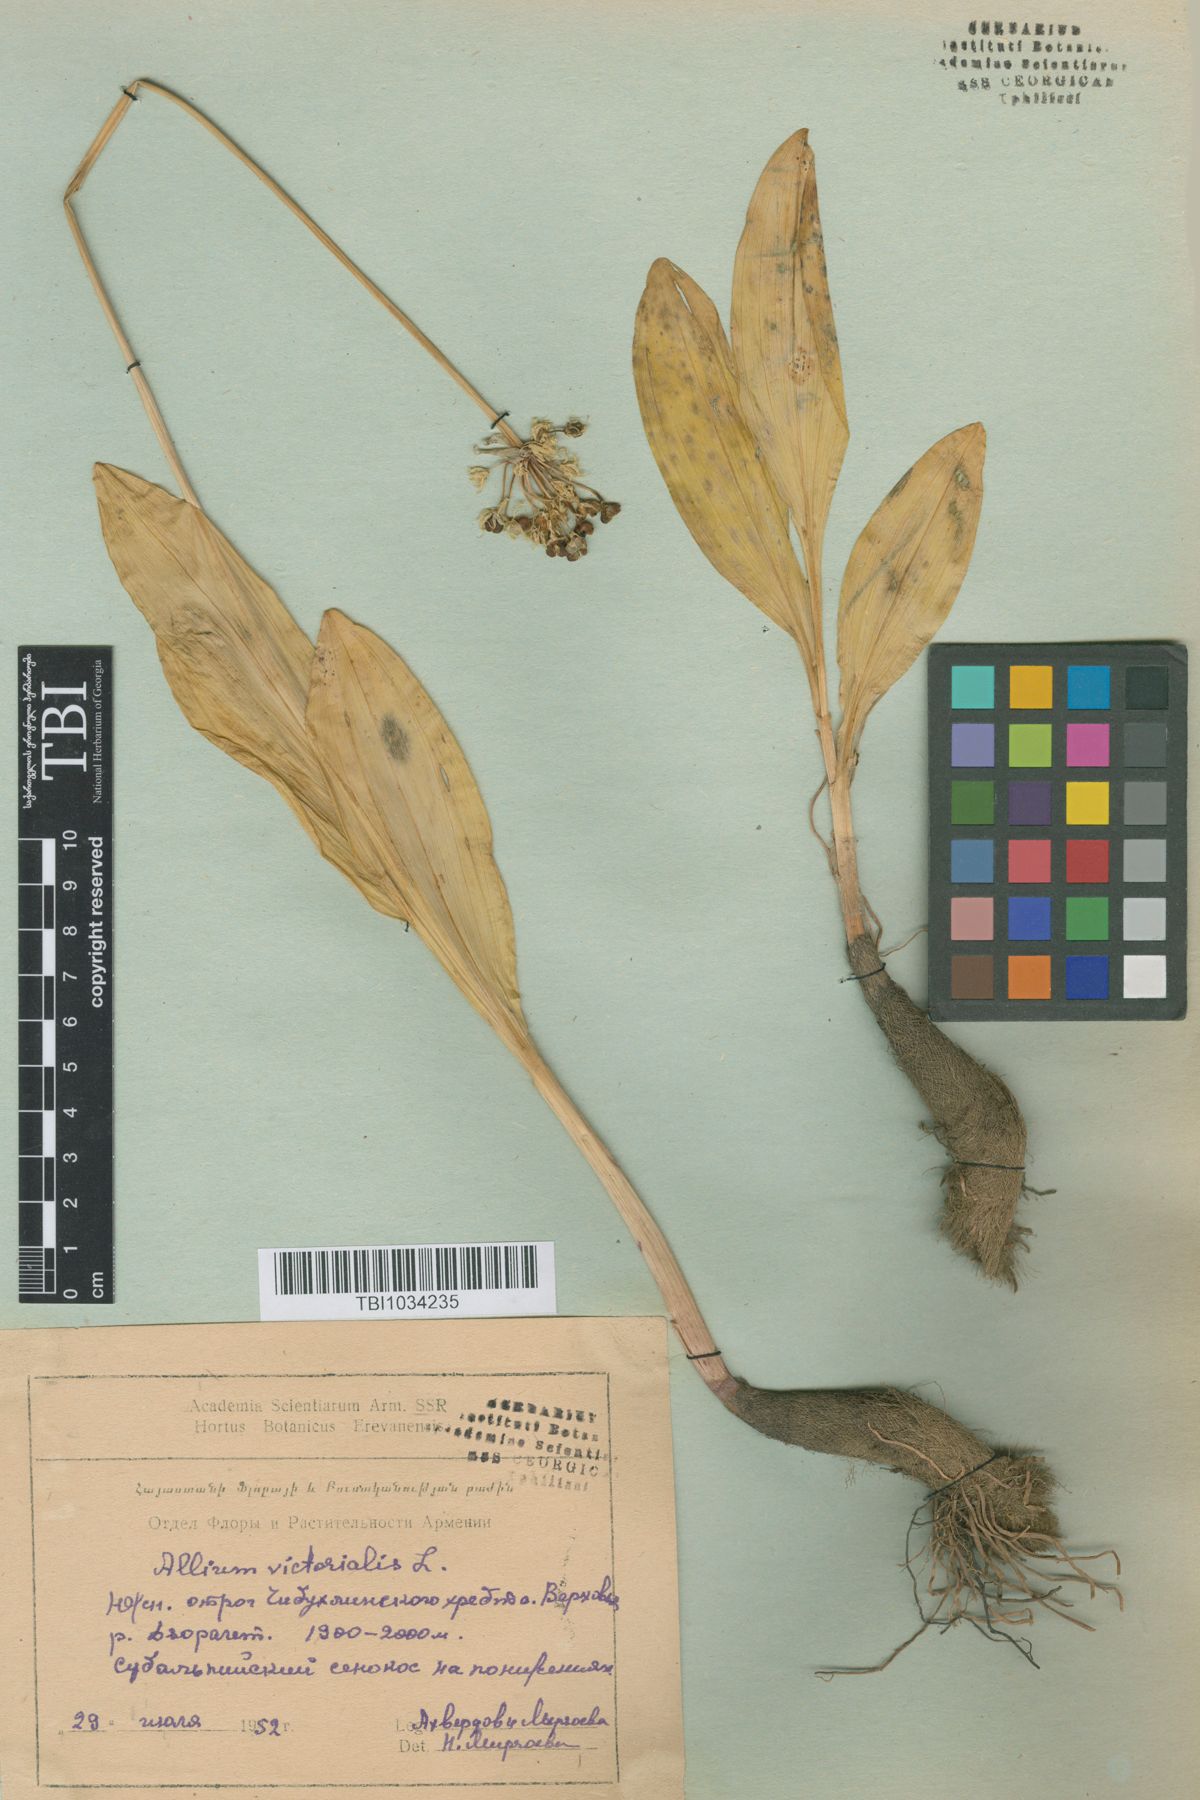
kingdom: Plantae
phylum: Tracheophyta
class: Liliopsida
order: Asparagales
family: Amaryllidaceae
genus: Allium
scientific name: Allium victorialis
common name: Alpine leek
